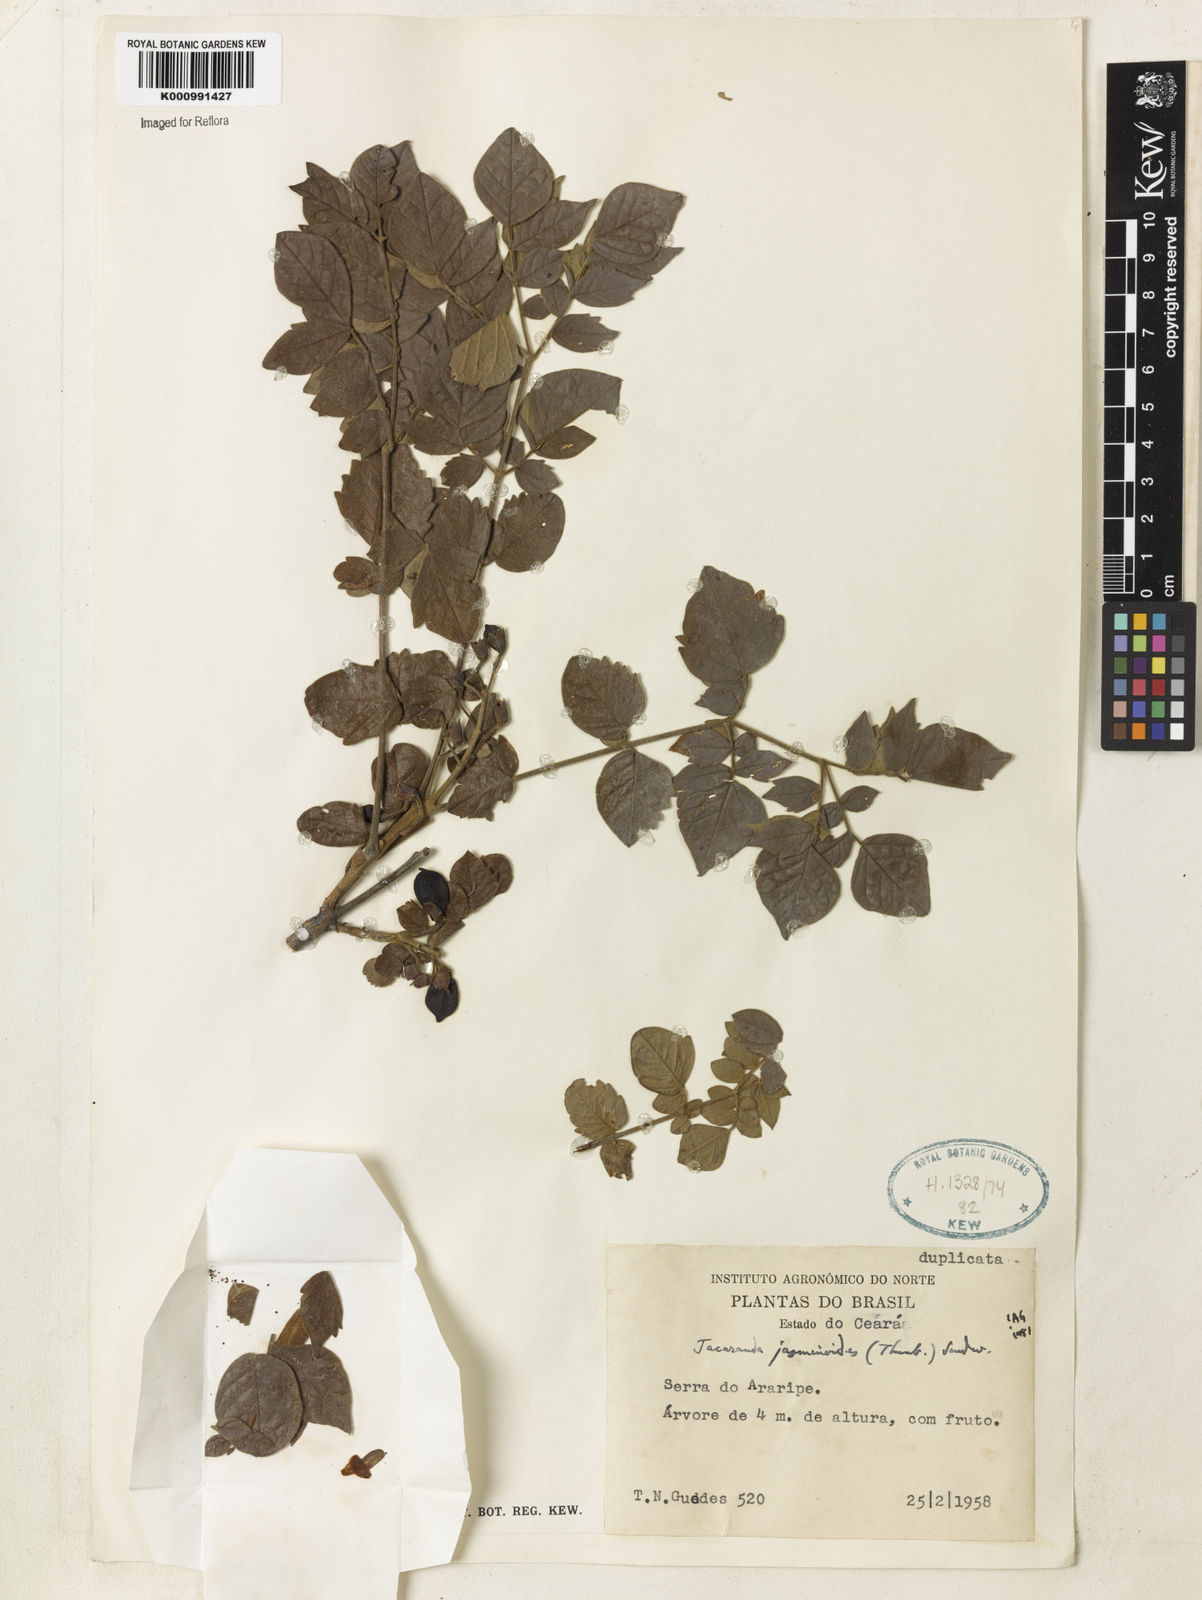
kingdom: Plantae
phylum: Tracheophyta
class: Magnoliopsida
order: Lamiales
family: Bignoniaceae
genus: Jacaranda
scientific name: Jacaranda jasminoides
